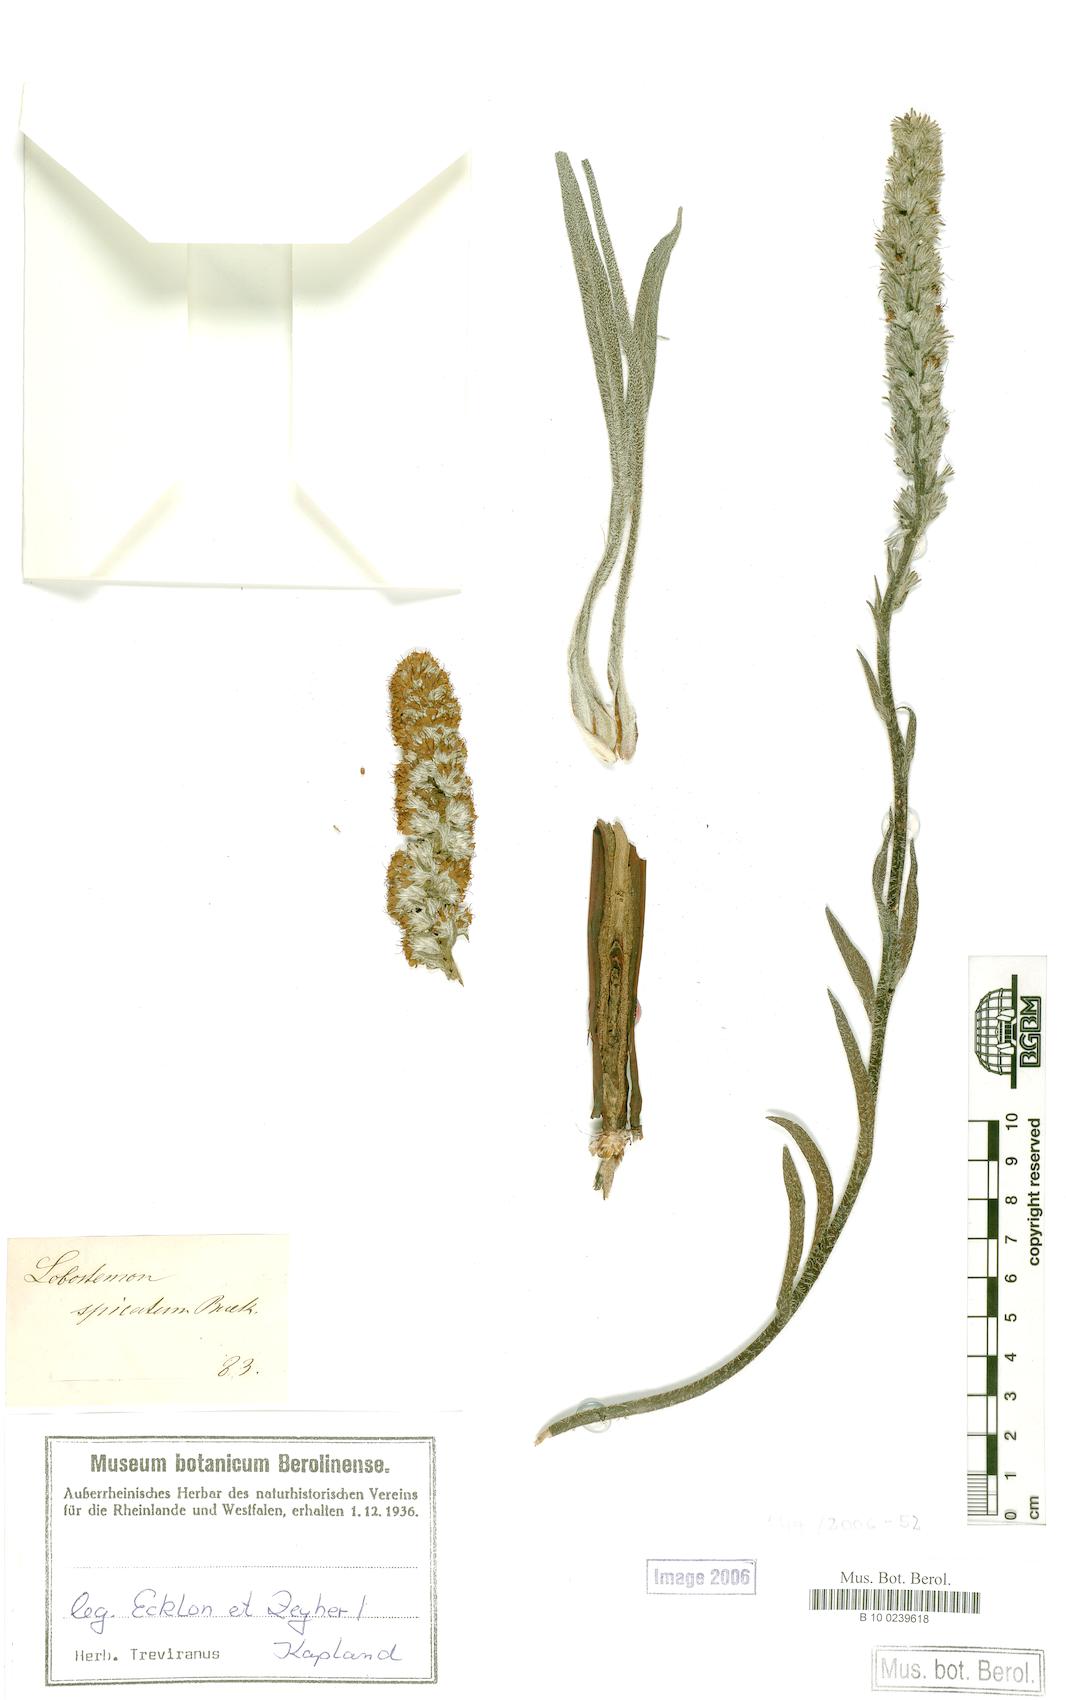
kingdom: Plantae
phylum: Tracheophyta
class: Magnoliopsida
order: Boraginales
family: Boraginaceae
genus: Lobostemon
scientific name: Lobostemon splendens
